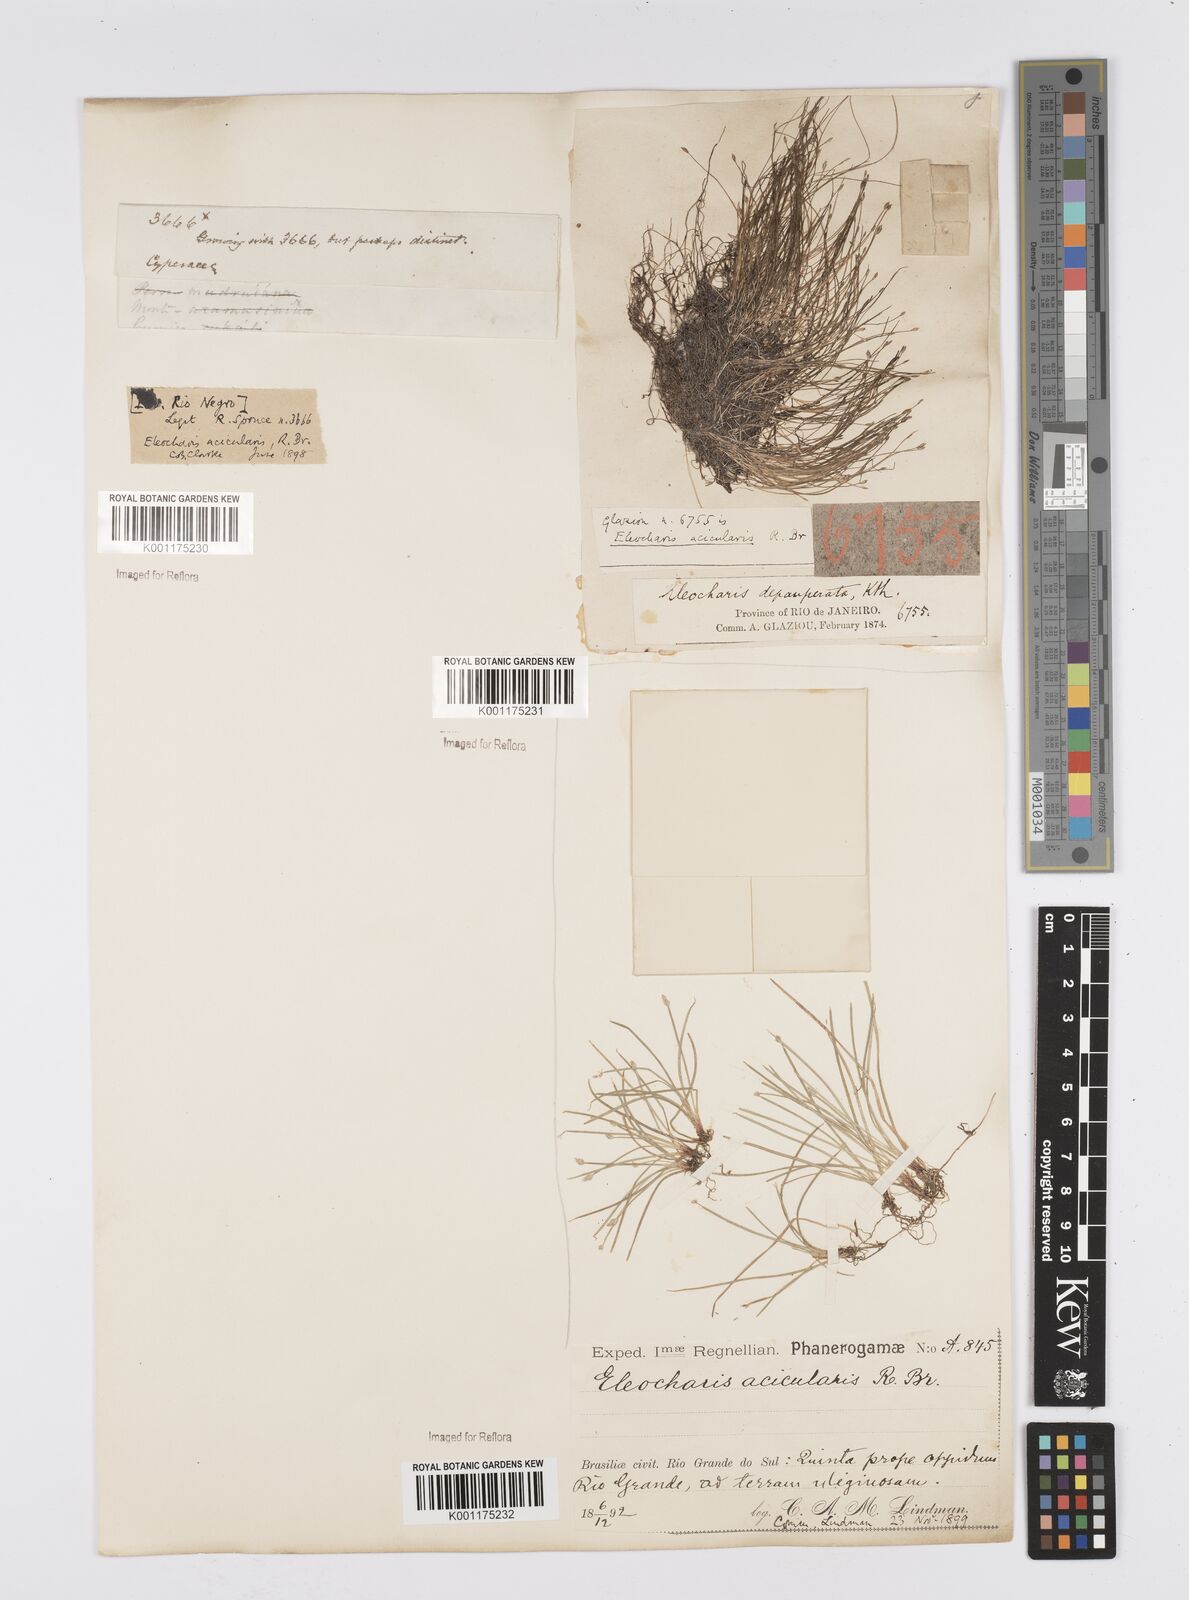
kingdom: Plantae
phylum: Tracheophyta
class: Liliopsida
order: Poales
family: Cyperaceae
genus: Eleocharis
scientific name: Eleocharis acicularis
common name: Needle spike-rush
